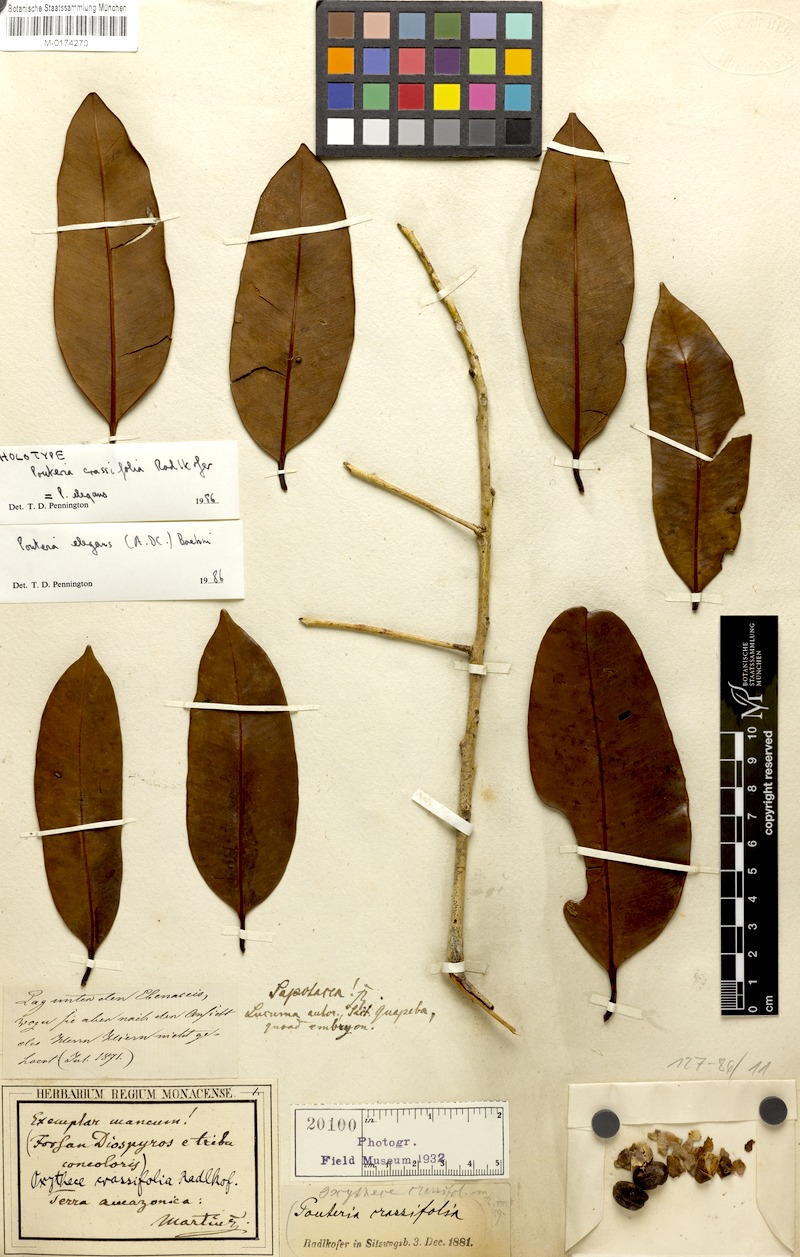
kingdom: Plantae
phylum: Tracheophyta
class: Magnoliopsida
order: Ericales
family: Sapotaceae
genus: Pouteria
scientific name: Pouteria elegans
